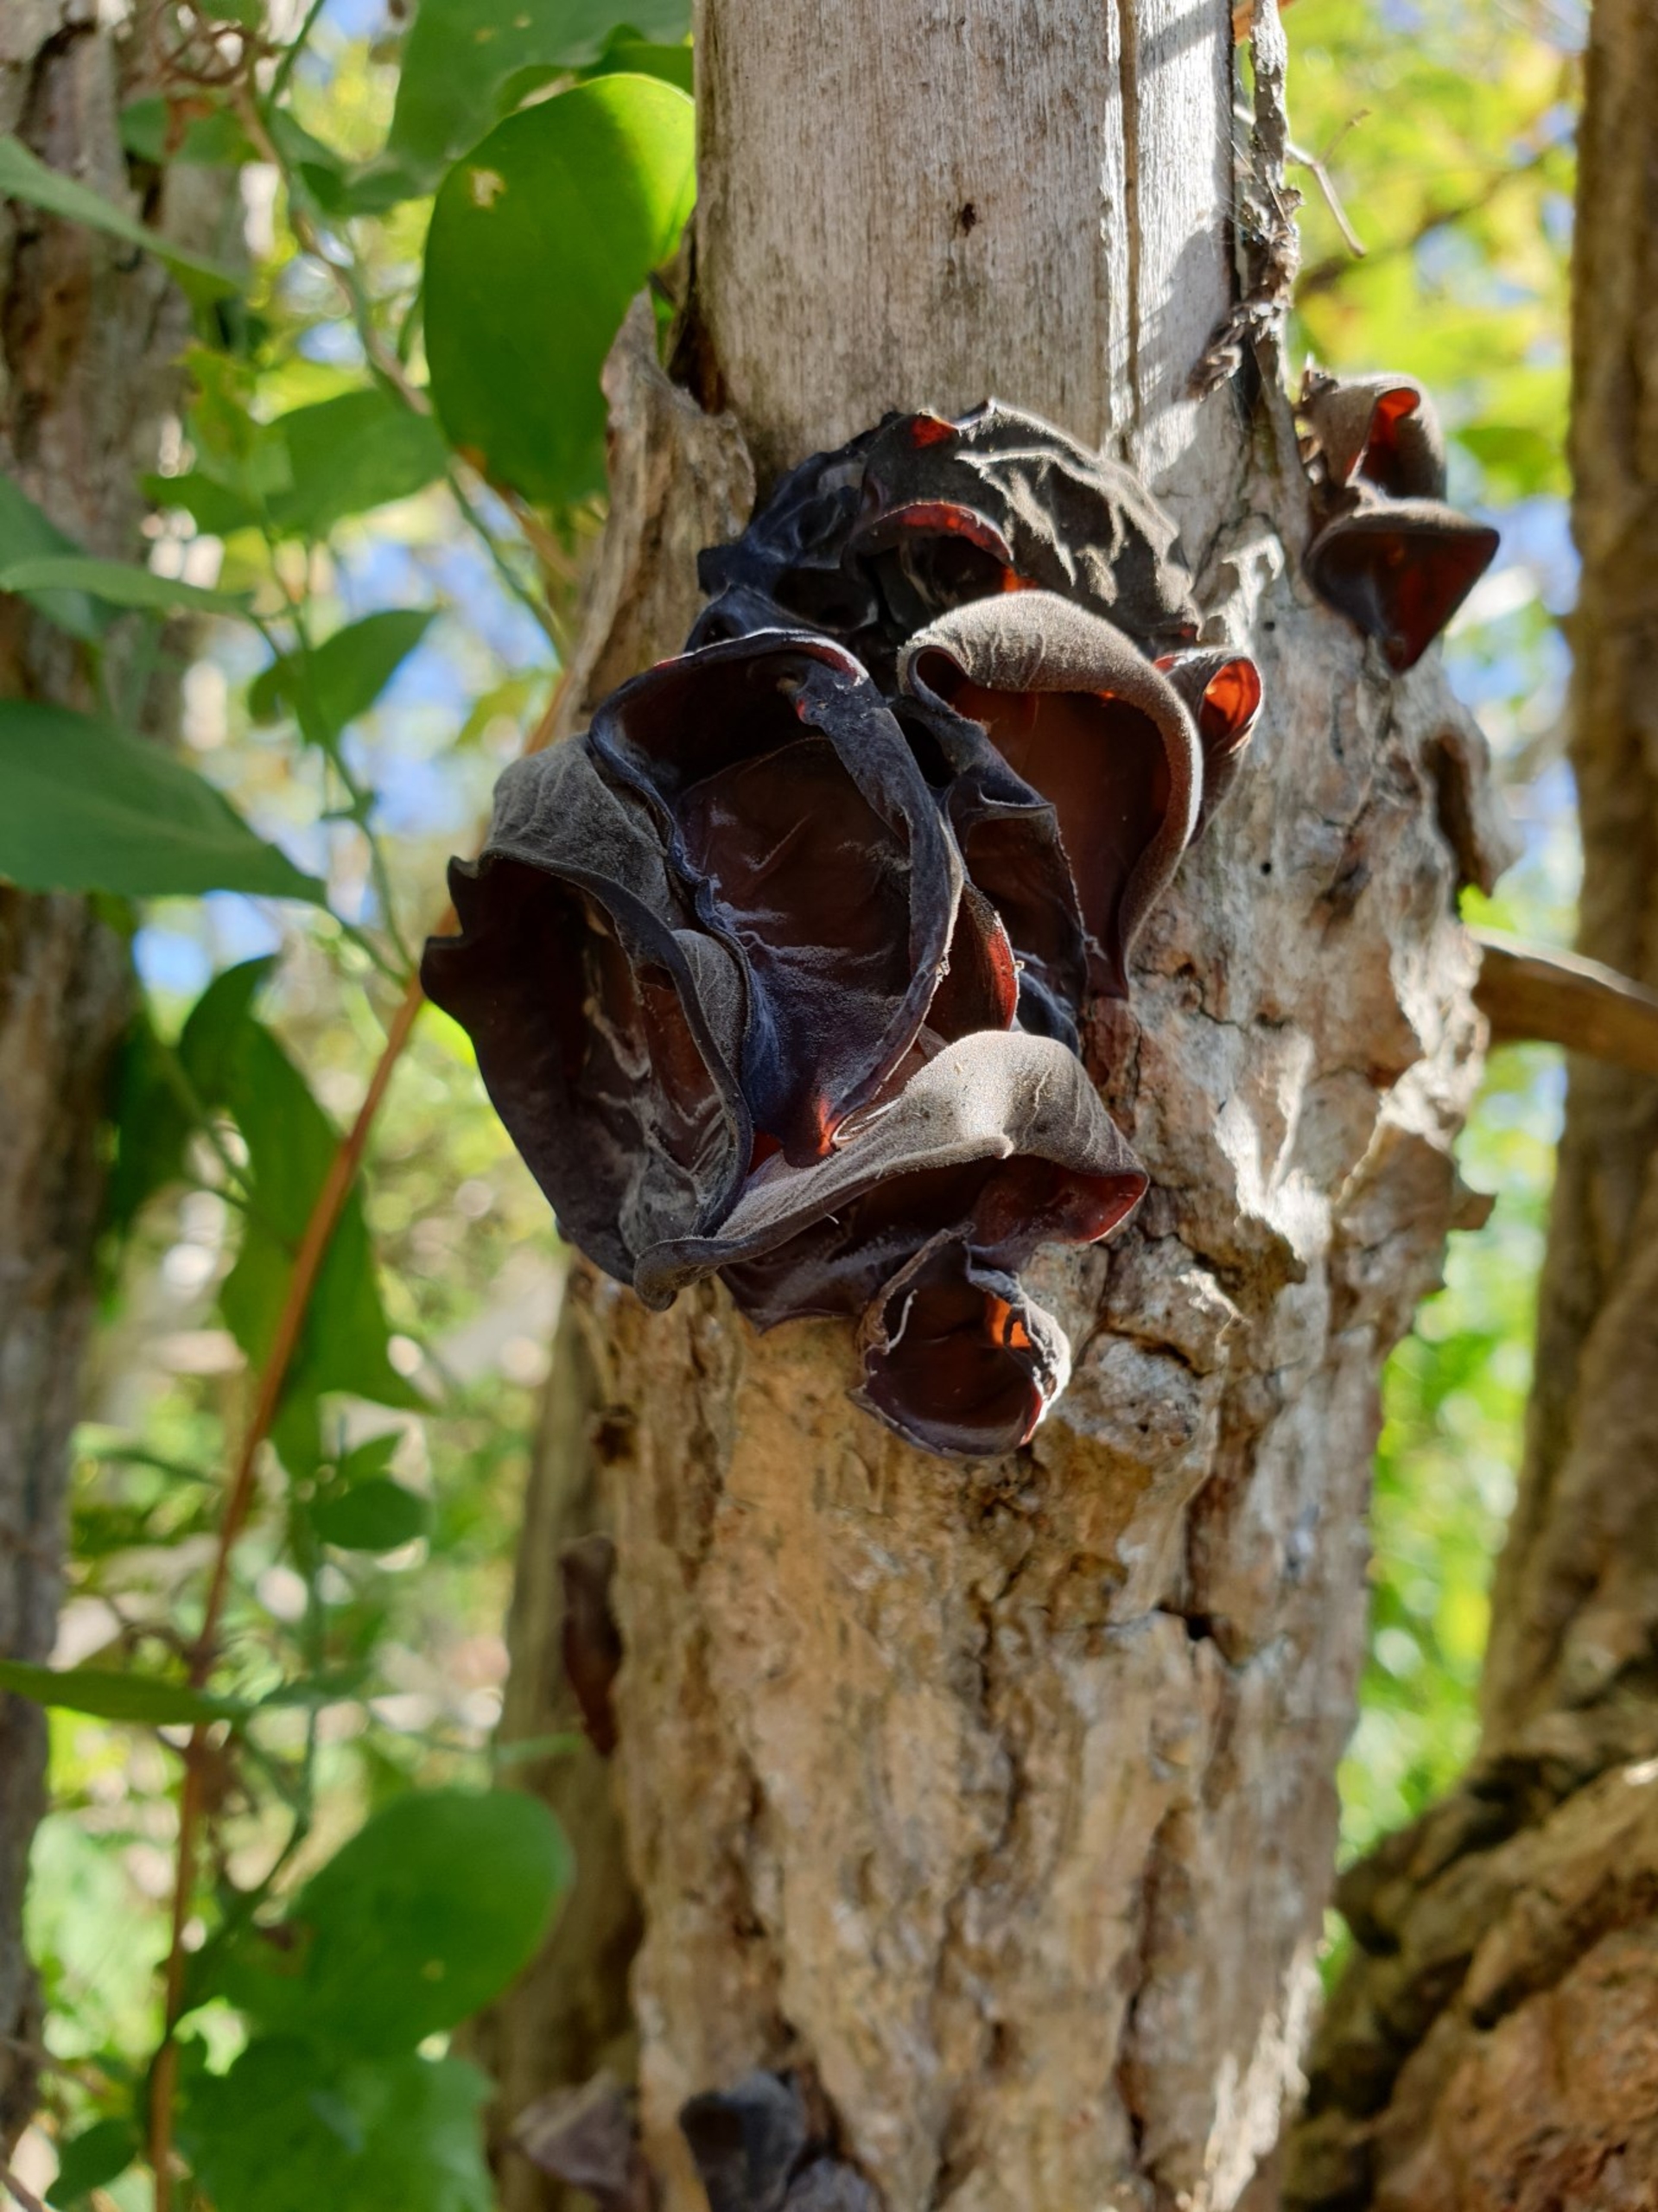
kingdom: Fungi
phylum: Basidiomycota
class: Agaricomycetes
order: Auriculariales
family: Auriculariaceae
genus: Auricularia
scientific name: Auricularia
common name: Judasøre
